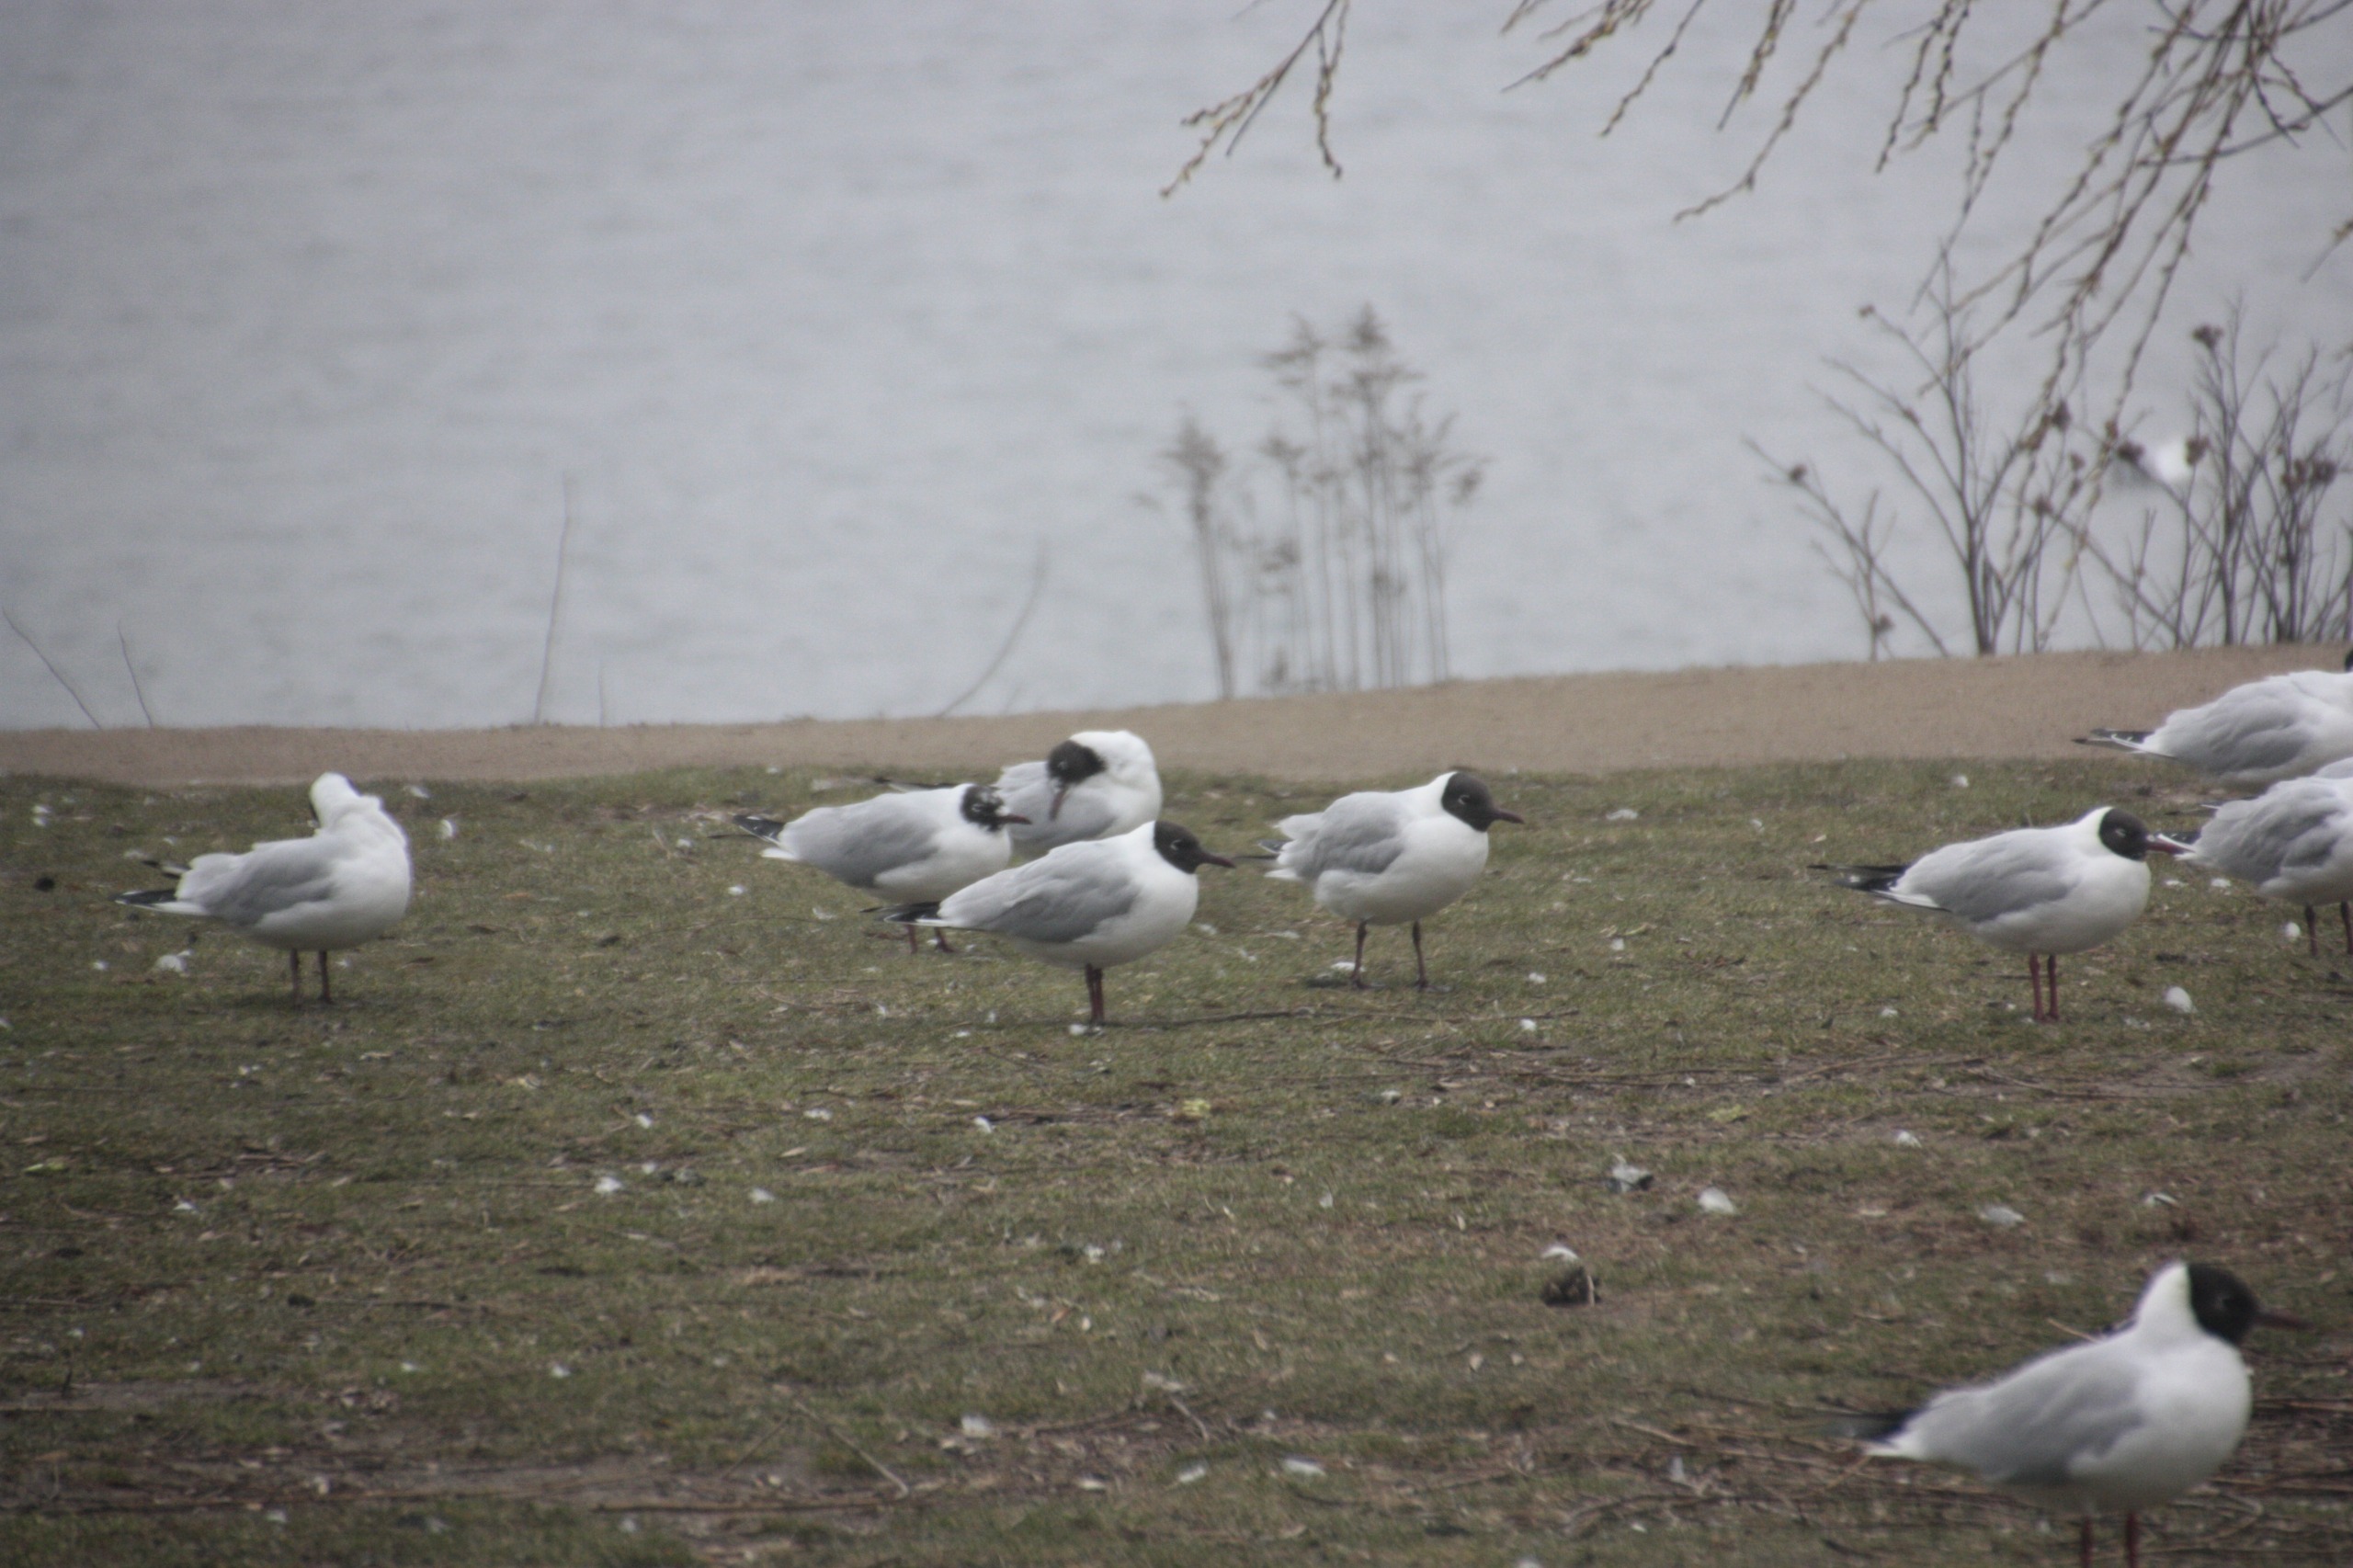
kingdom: Animalia
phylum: Chordata
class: Aves
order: Charadriiformes
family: Laridae
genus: Chroicocephalus
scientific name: Chroicocephalus ridibundus
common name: Hættemåge
